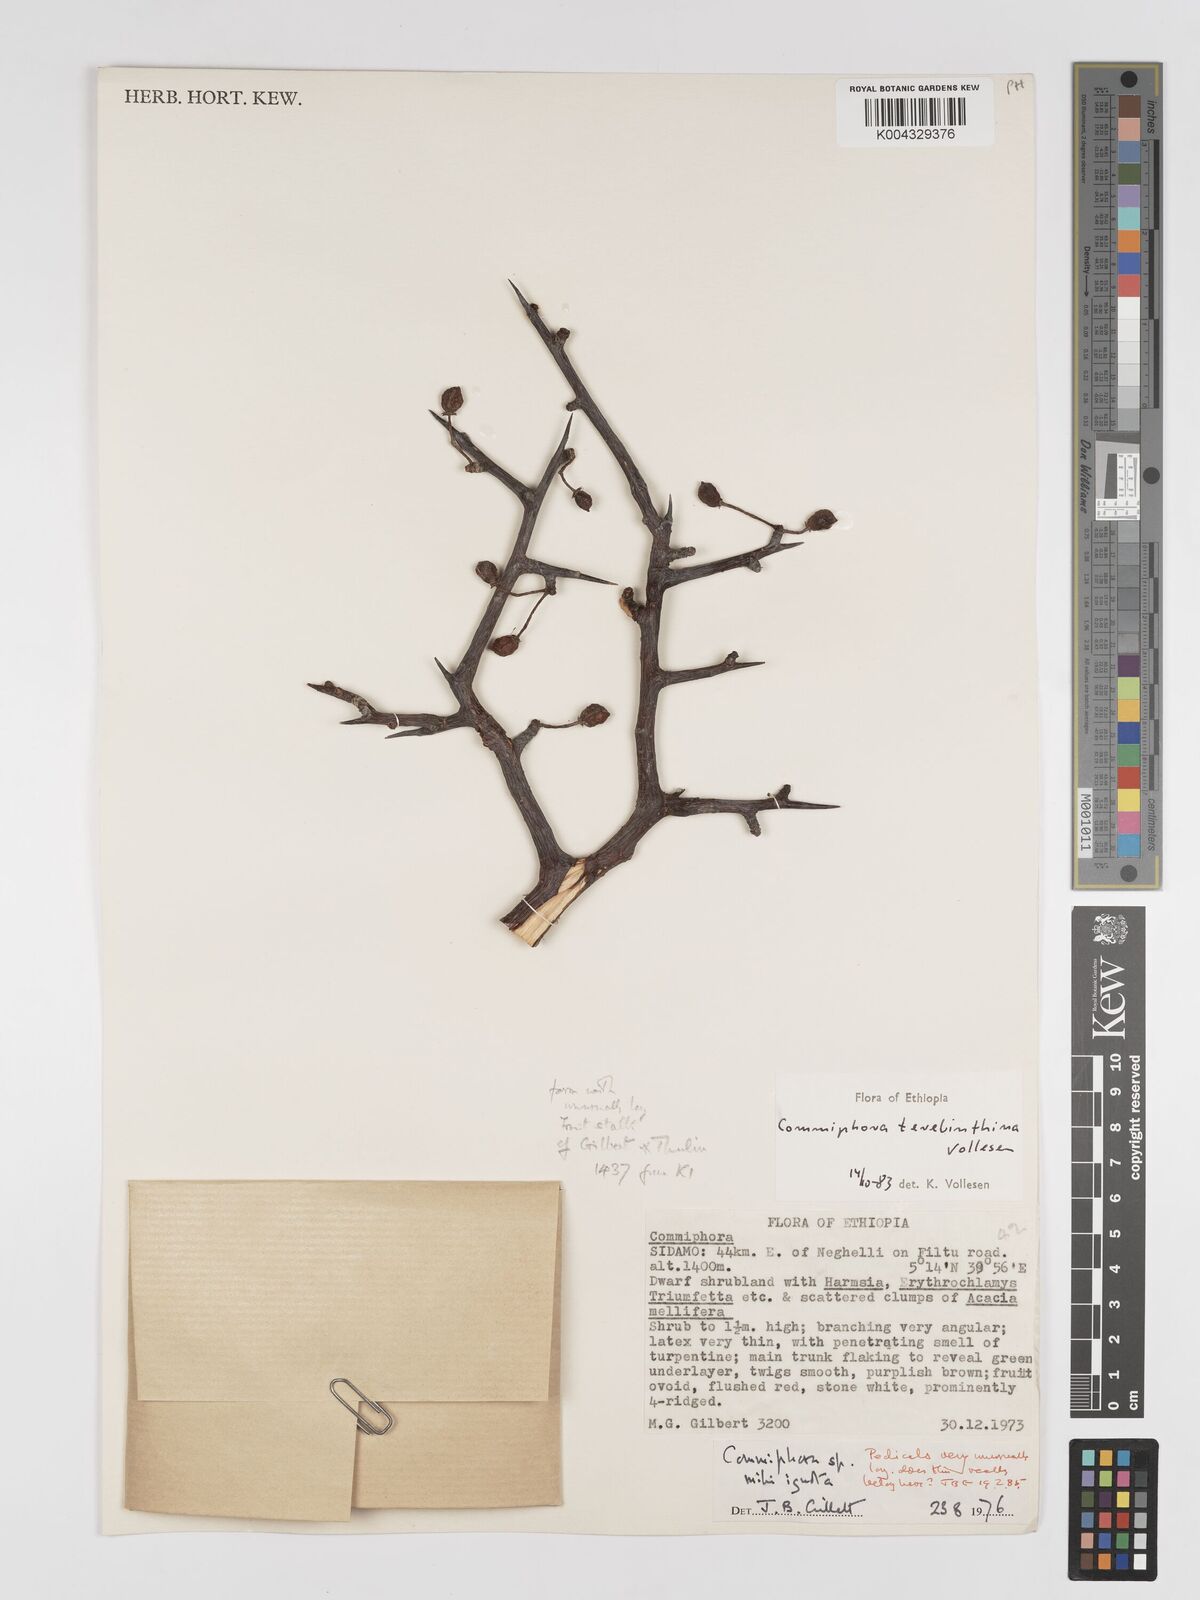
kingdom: Plantae
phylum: Tracheophyta
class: Magnoliopsida
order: Sapindales
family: Burseraceae
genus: Commiphora
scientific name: Commiphora samharensis
